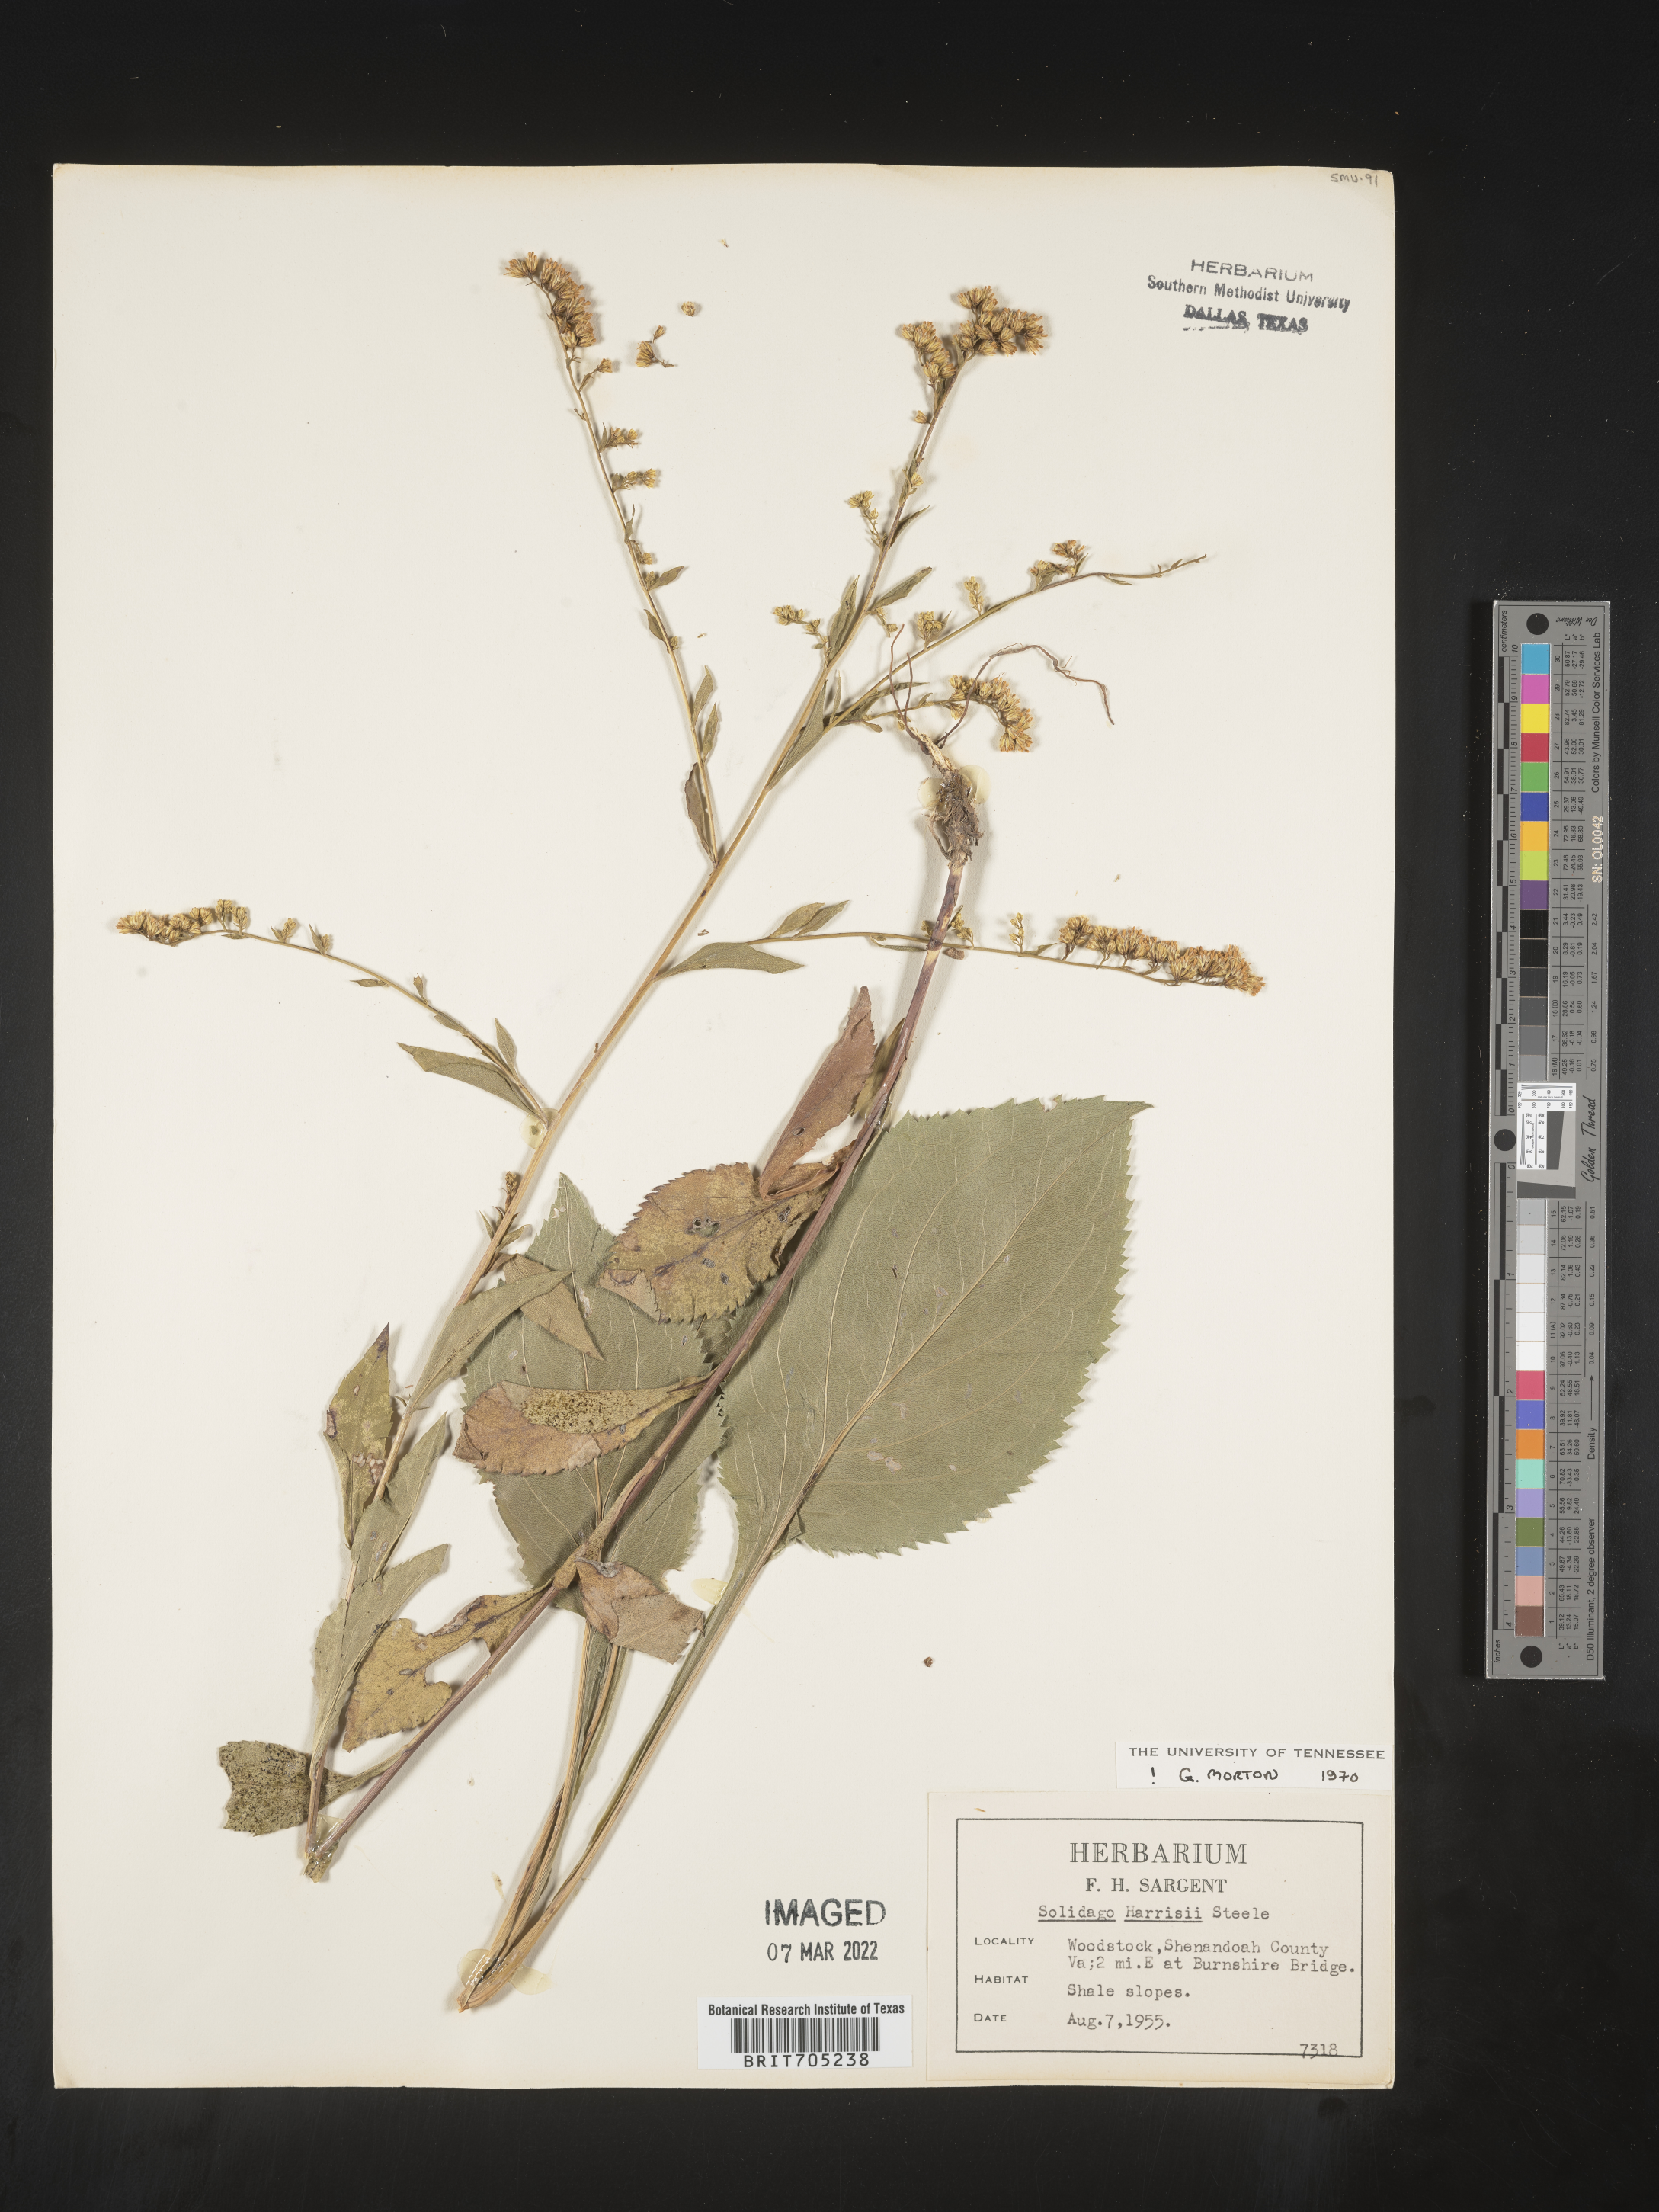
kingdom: Plantae
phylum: Tracheophyta
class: Magnoliopsida
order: Asterales
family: Asteraceae
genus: Solidago
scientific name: Solidago harrisii
